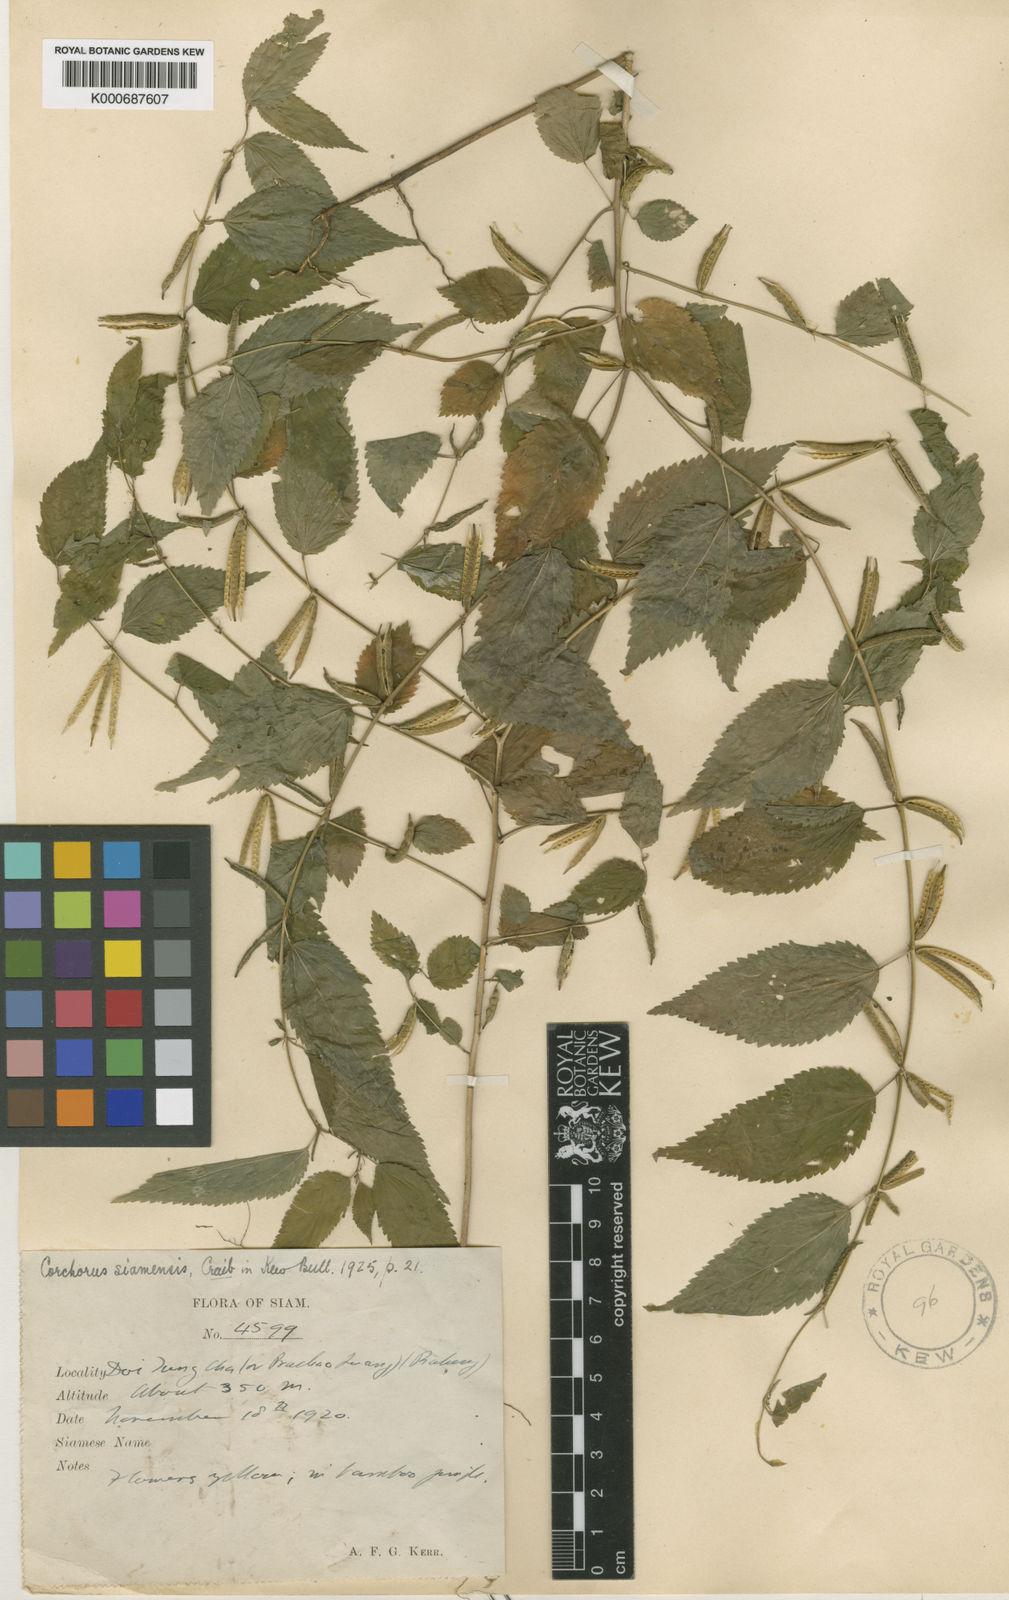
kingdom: Plantae
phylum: Tracheophyta
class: Magnoliopsida
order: Malvales
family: Malvaceae
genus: Corchorus
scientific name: Corchorus siamensis
